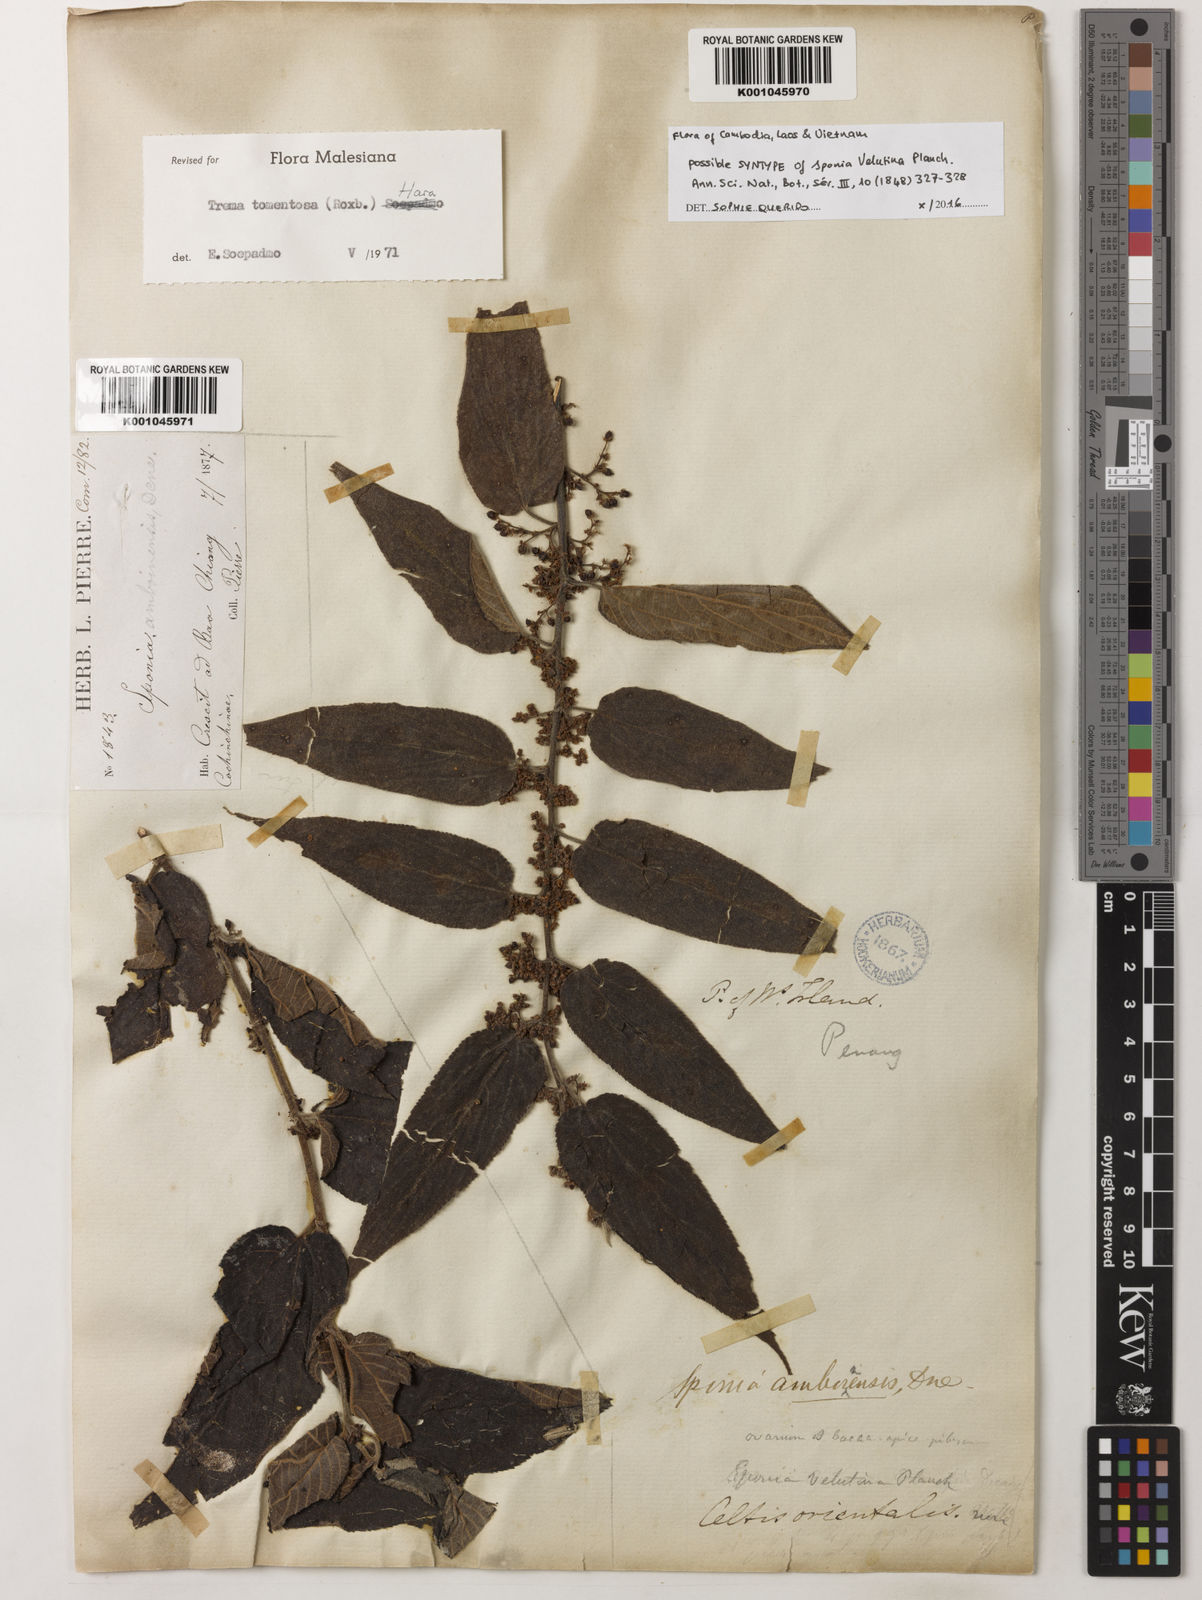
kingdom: Plantae
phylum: Tracheophyta
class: Magnoliopsida
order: Rosales
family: Cannabaceae
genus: Trema
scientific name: Trema tomentosum
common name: Peach-leaf-poisonbush
